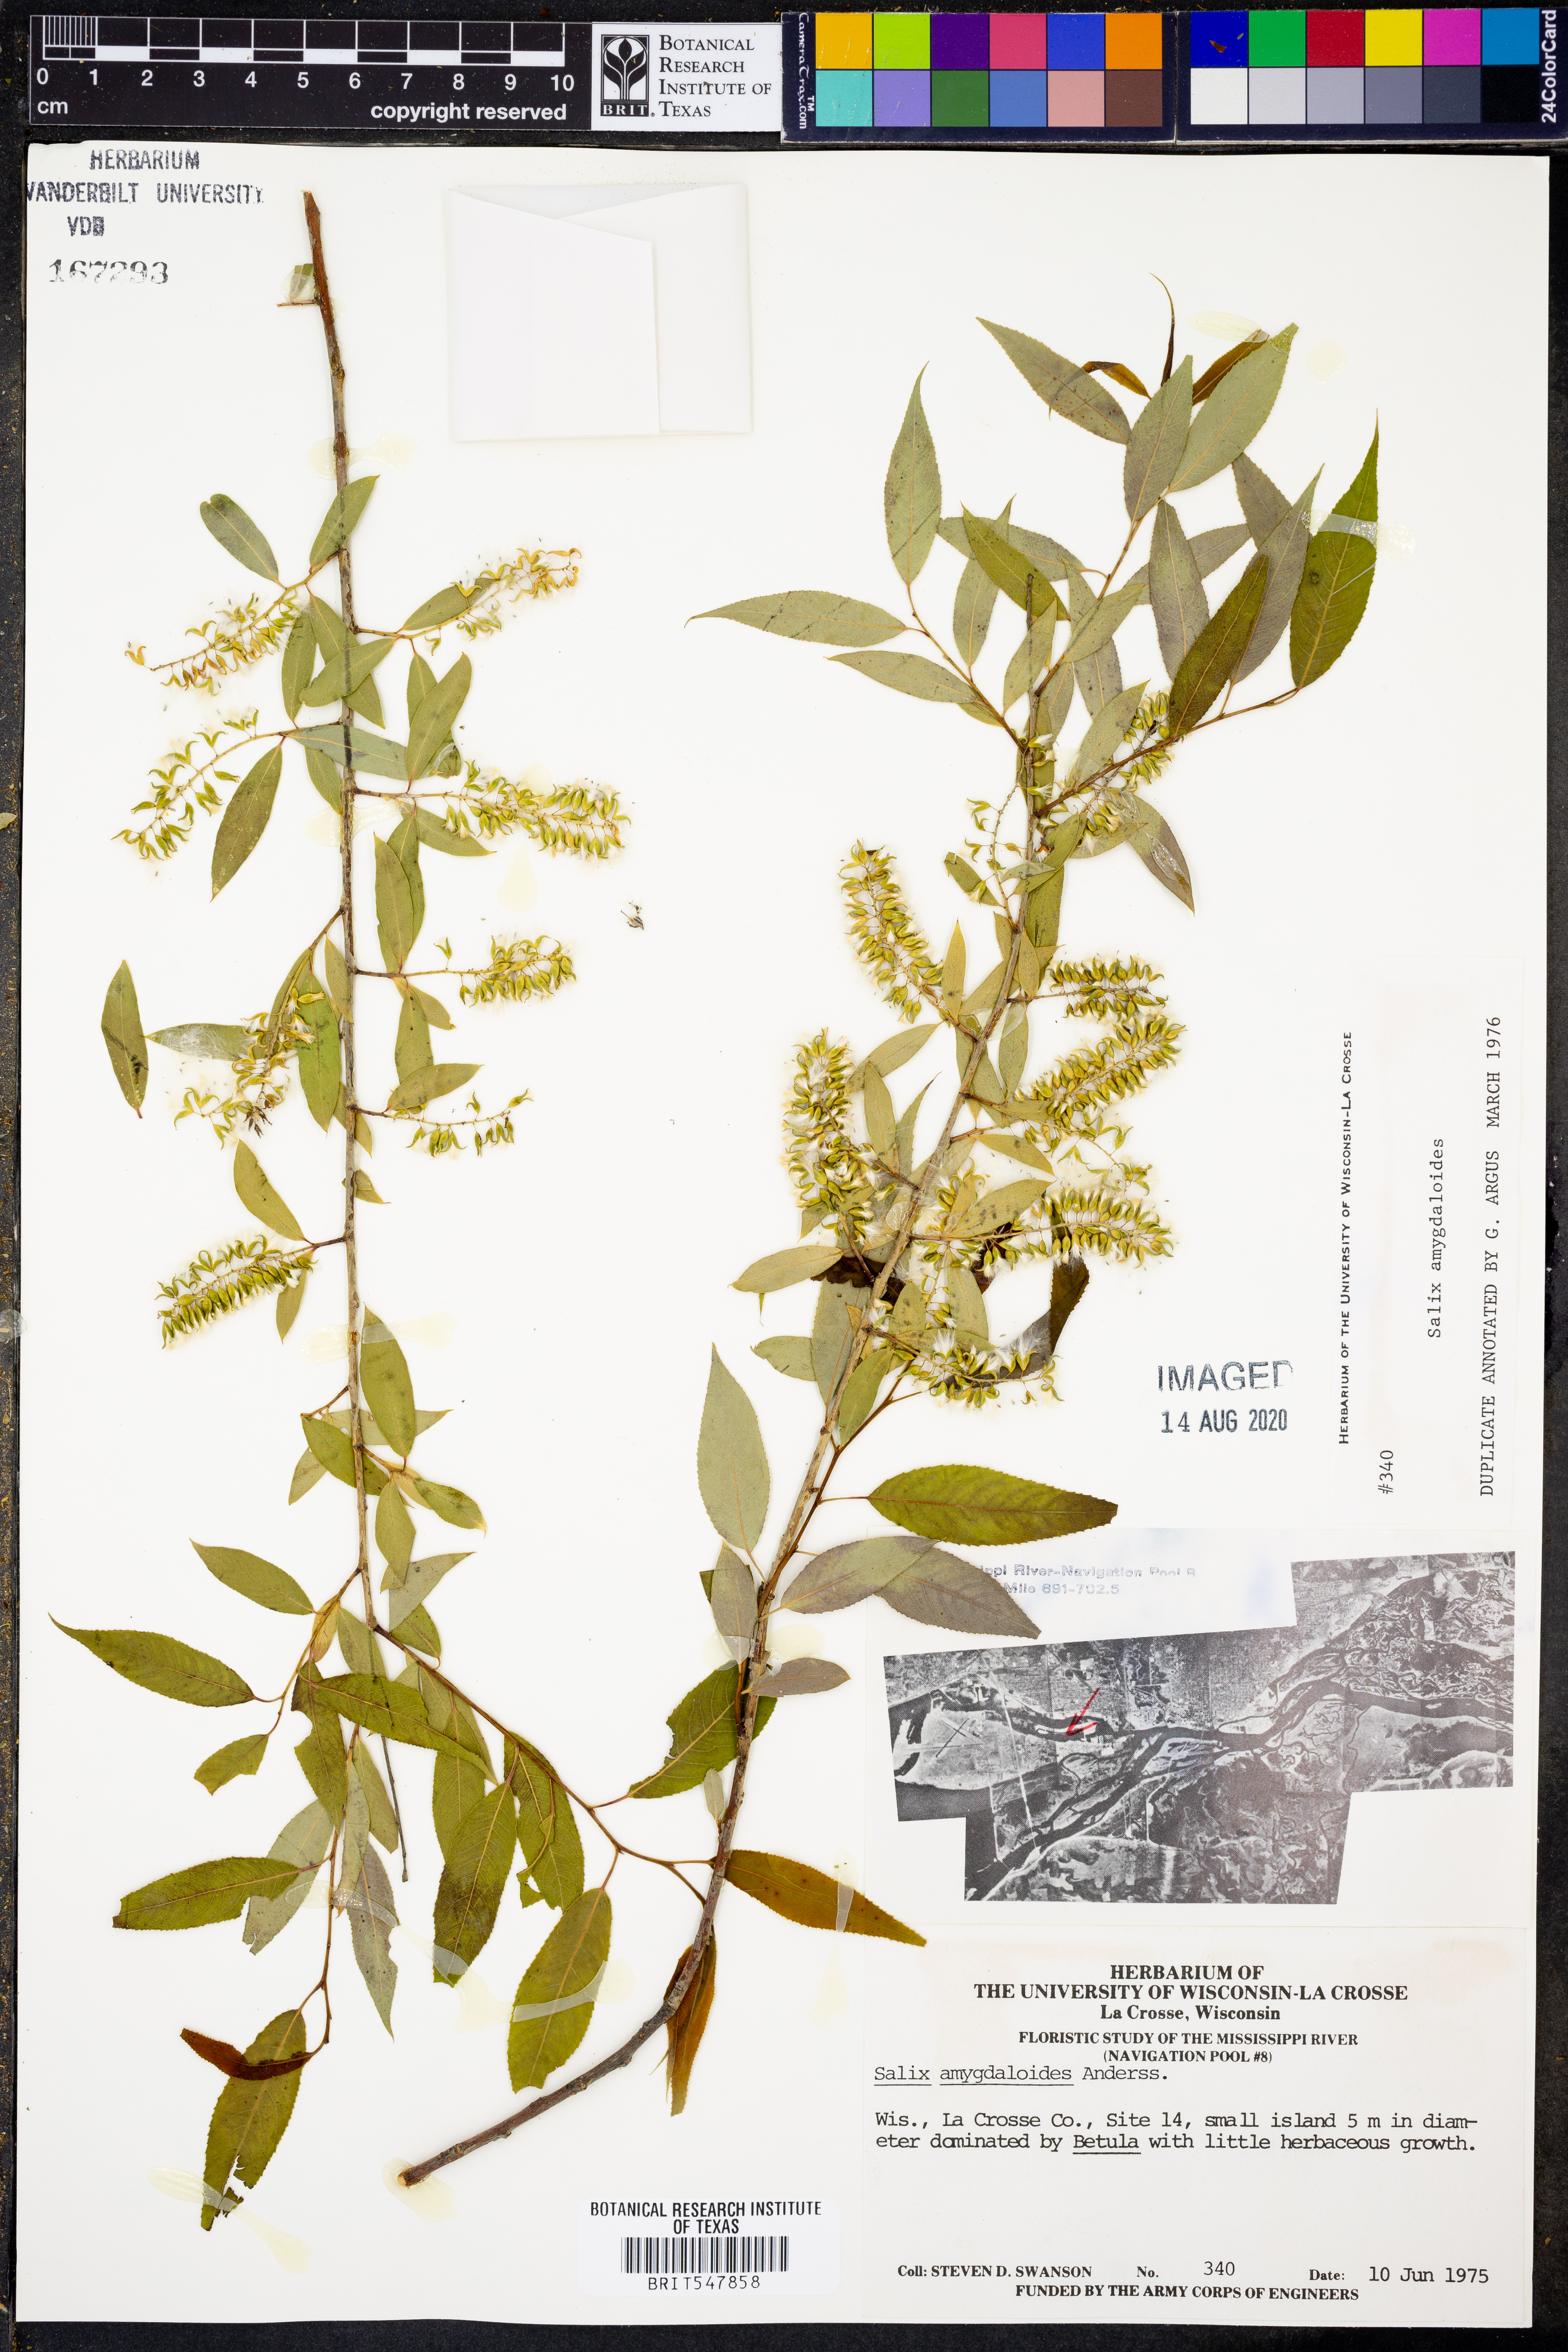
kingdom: Plantae
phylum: Tracheophyta
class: Magnoliopsida
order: Malpighiales
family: Salicaceae
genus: Salix
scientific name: Salix amygdaloides
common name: Peach leaf willow
